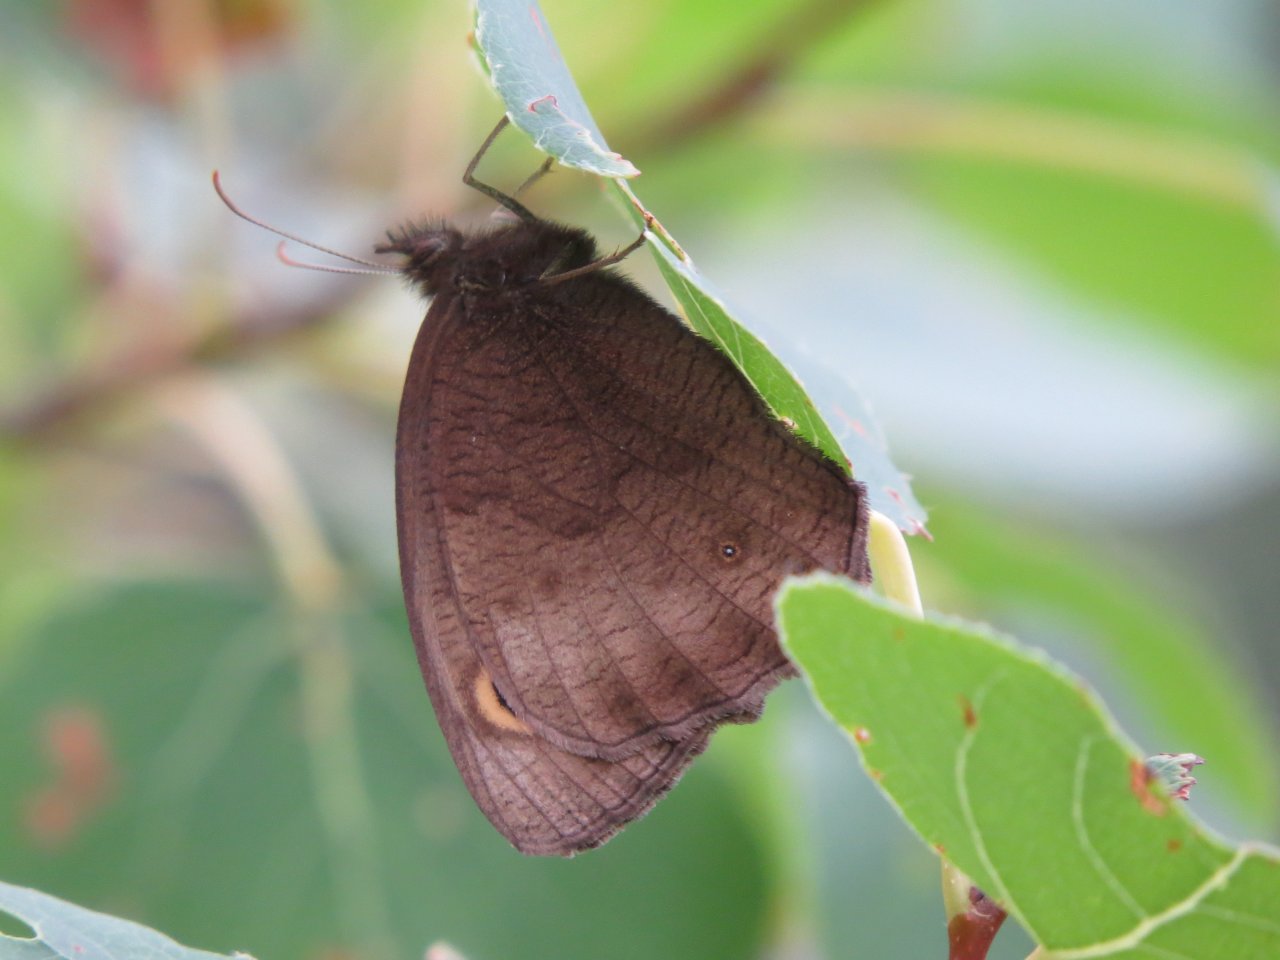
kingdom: Animalia
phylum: Arthropoda
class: Insecta
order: Lepidoptera
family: Nymphalidae
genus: Cercyonis
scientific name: Cercyonis pegala
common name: Common Wood-Nymph
